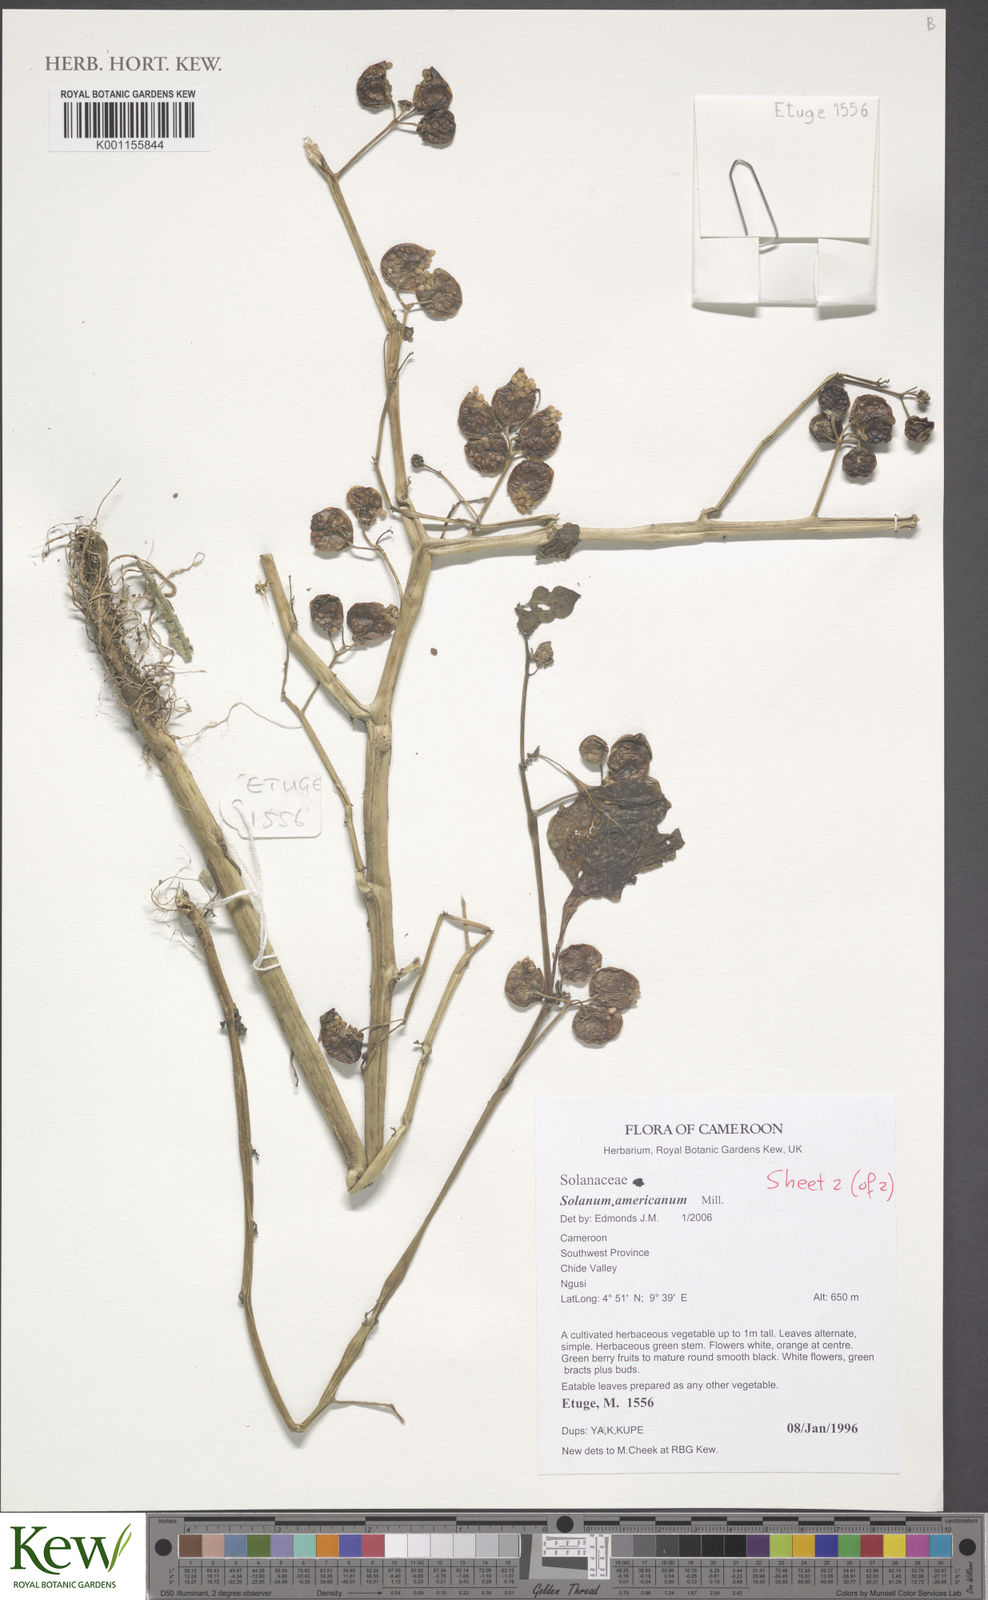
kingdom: Plantae
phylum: Tracheophyta
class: Magnoliopsida
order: Solanales
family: Solanaceae
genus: Solanum
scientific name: Solanum scabrum
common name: Garden-huckleberry
